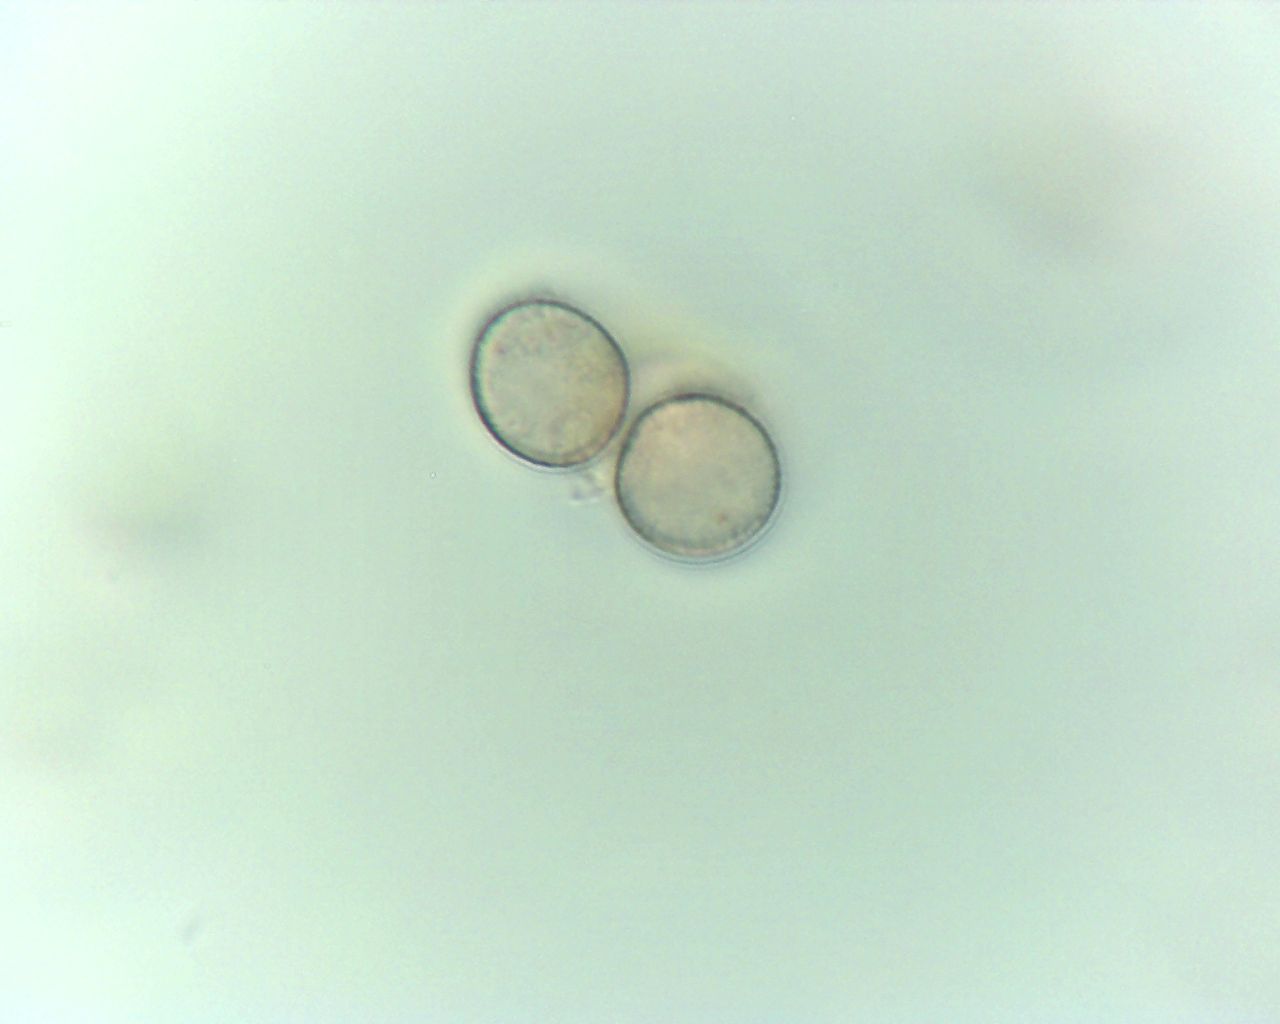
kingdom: Protozoa
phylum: Mycetozoa
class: Myxomycetes
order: Trichiales
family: Dictydiaethaliaceae
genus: Dictydiaethalium
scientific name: Dictydiaethalium plumbeum
